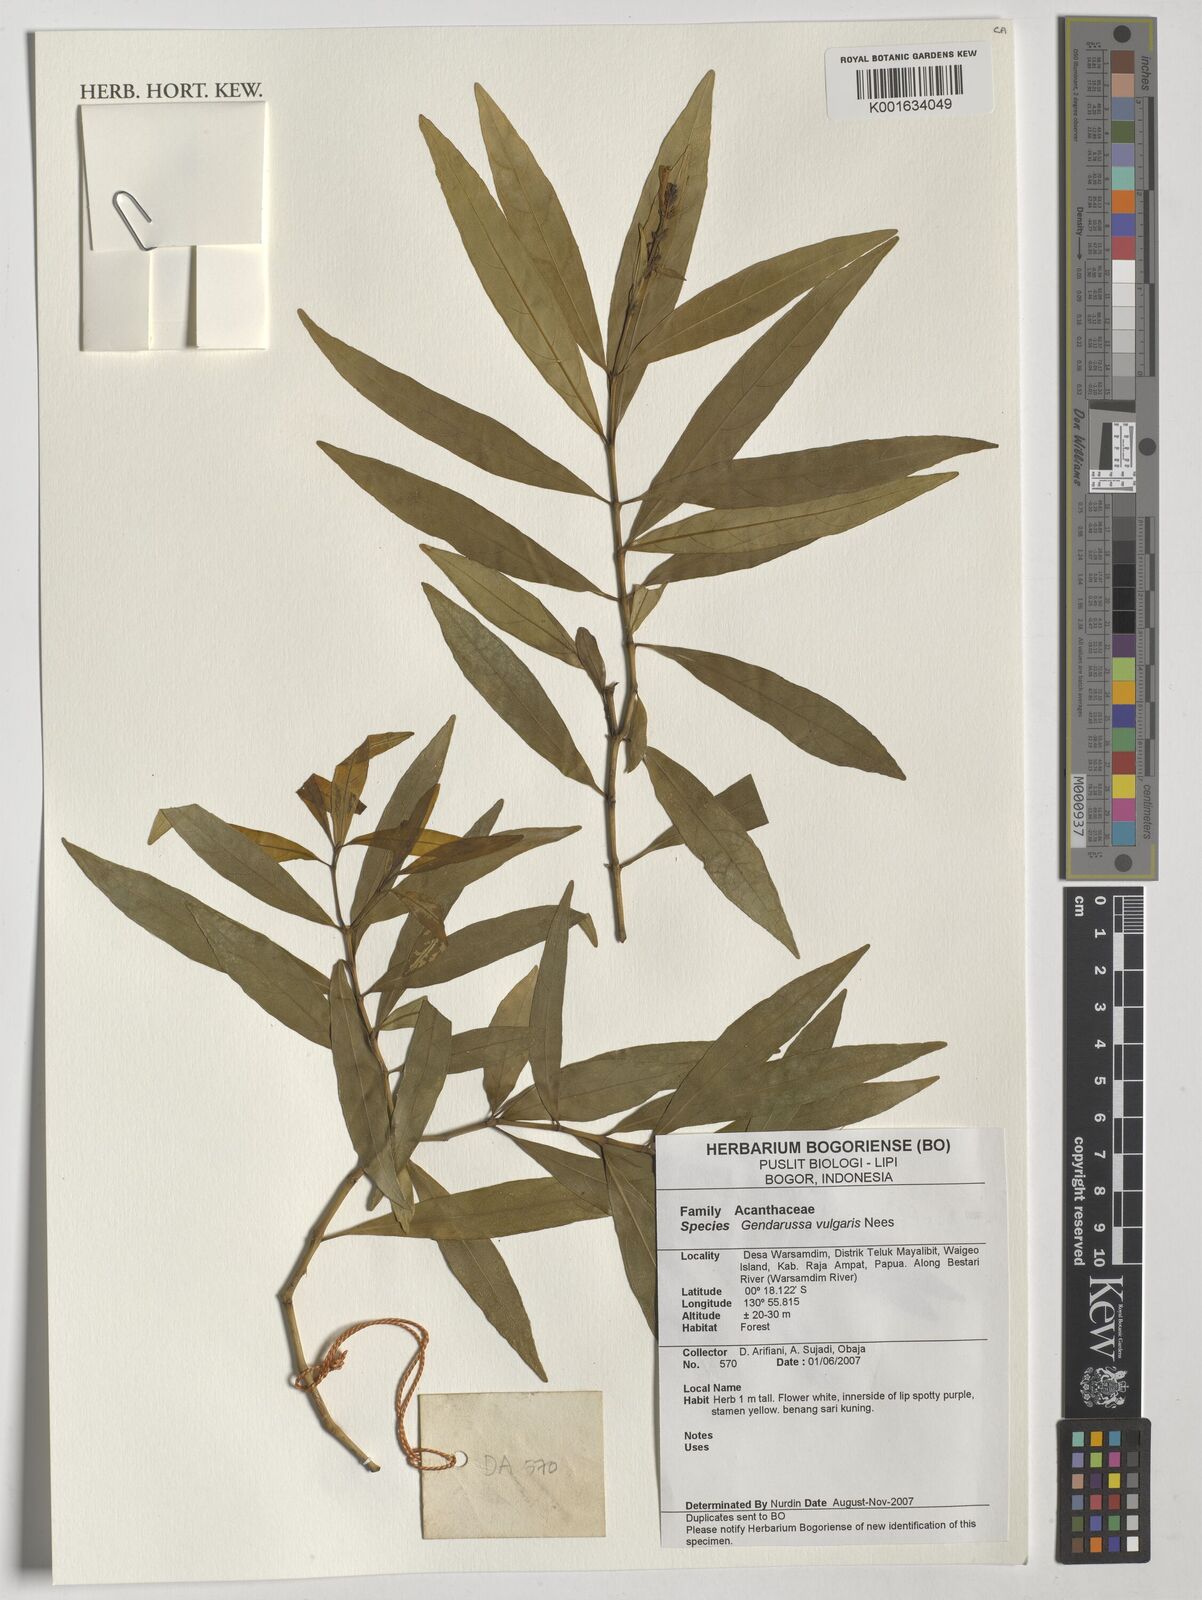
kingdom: Plantae
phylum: Tracheophyta
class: Magnoliopsida
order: Lamiales
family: Acanthaceae
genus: Justicia
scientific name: Justicia gendarussa
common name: Warer willow
